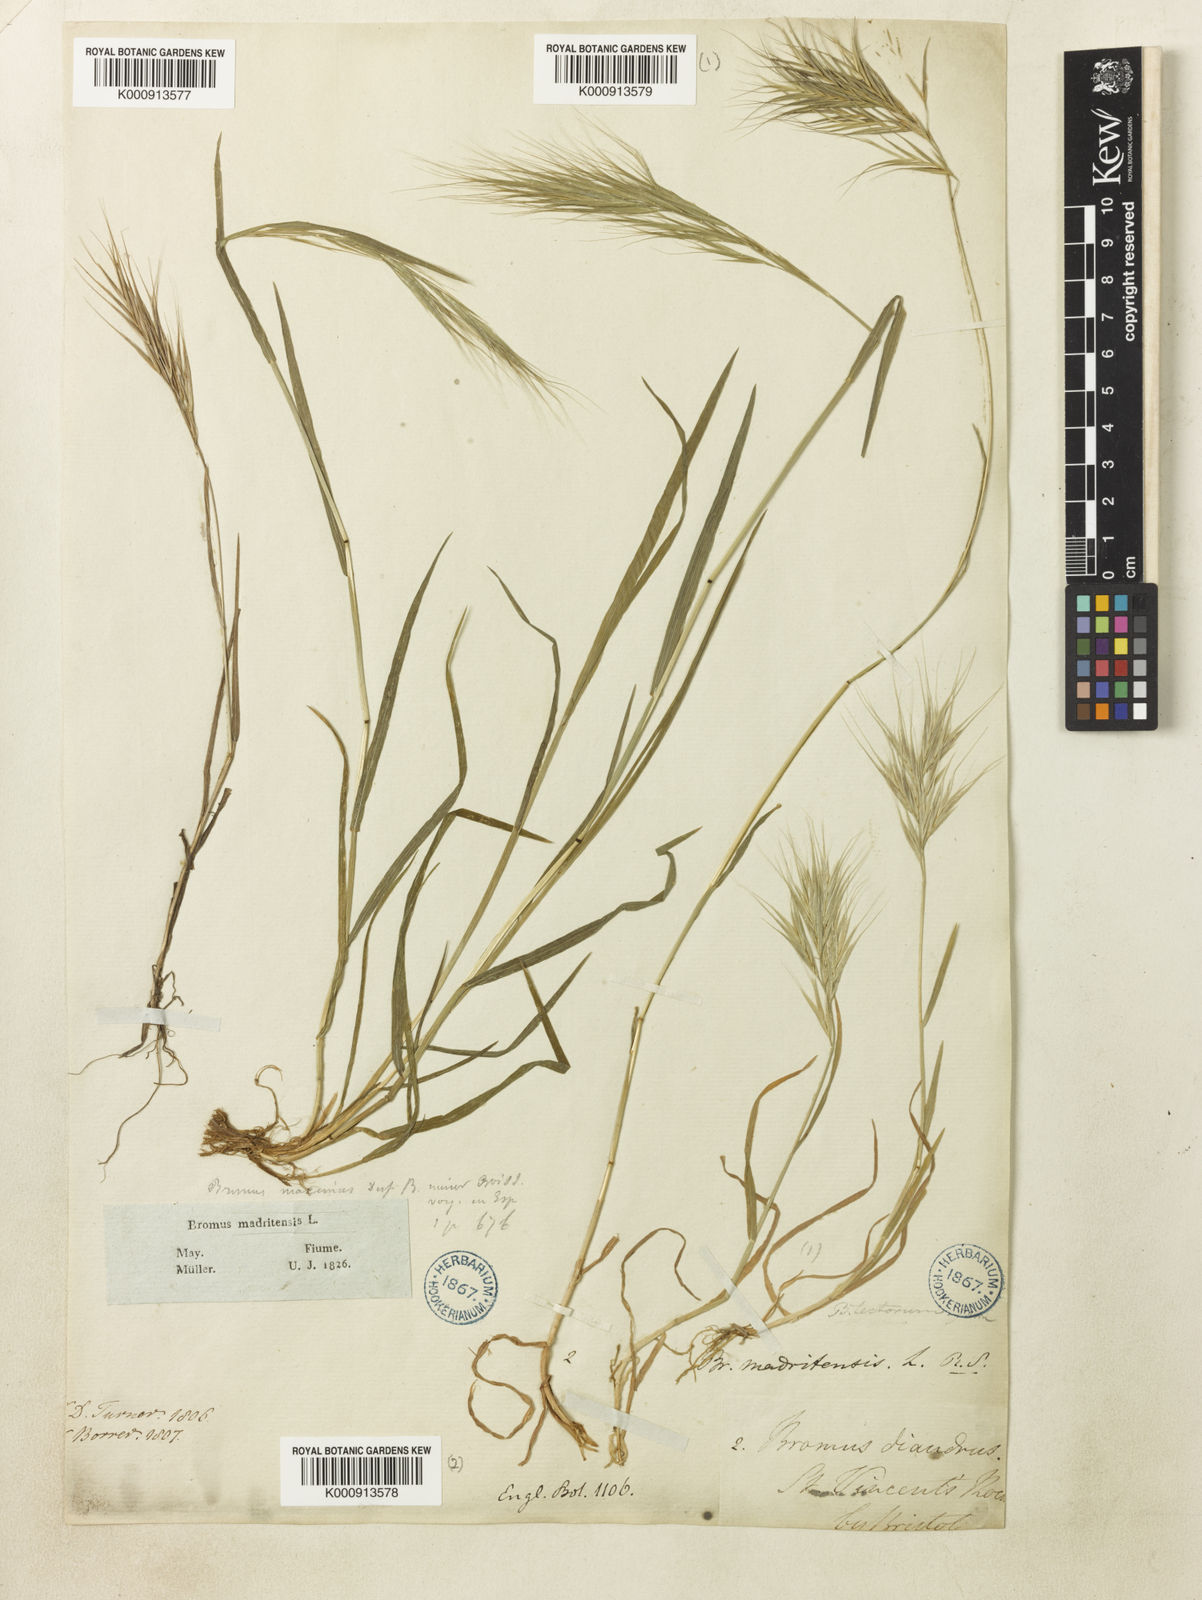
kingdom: Plantae
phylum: Tracheophyta
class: Liliopsida
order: Poales
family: Poaceae
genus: Bromus
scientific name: Bromus madritensis
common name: Compact brome
